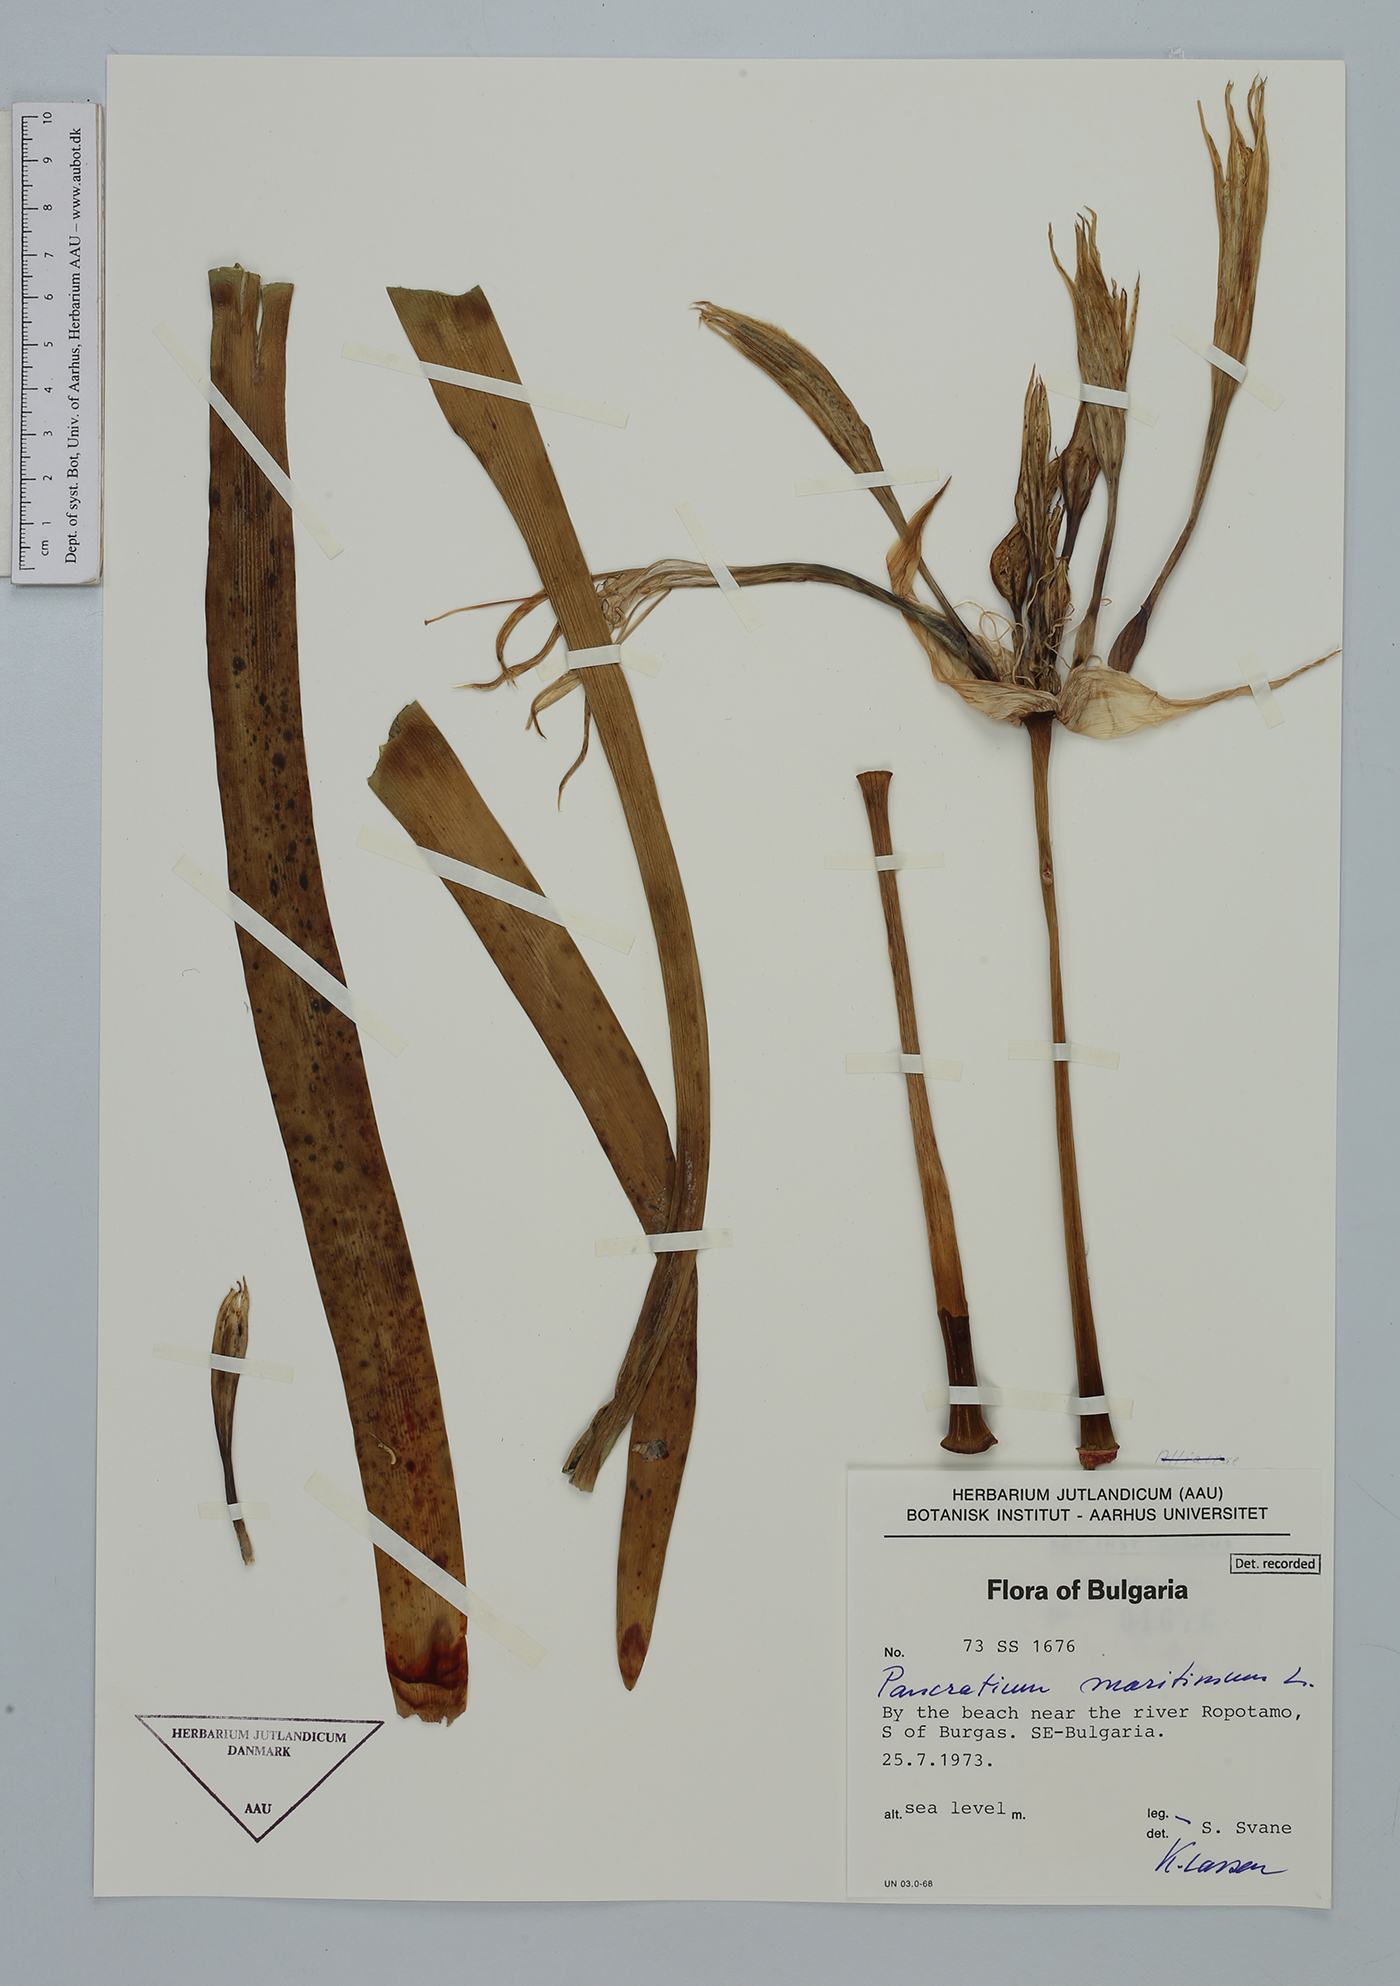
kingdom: Plantae
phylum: Tracheophyta
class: Liliopsida
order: Asparagales
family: Amaryllidaceae
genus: Pancratium
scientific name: Pancratium maritimum
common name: Sea-daffodil
